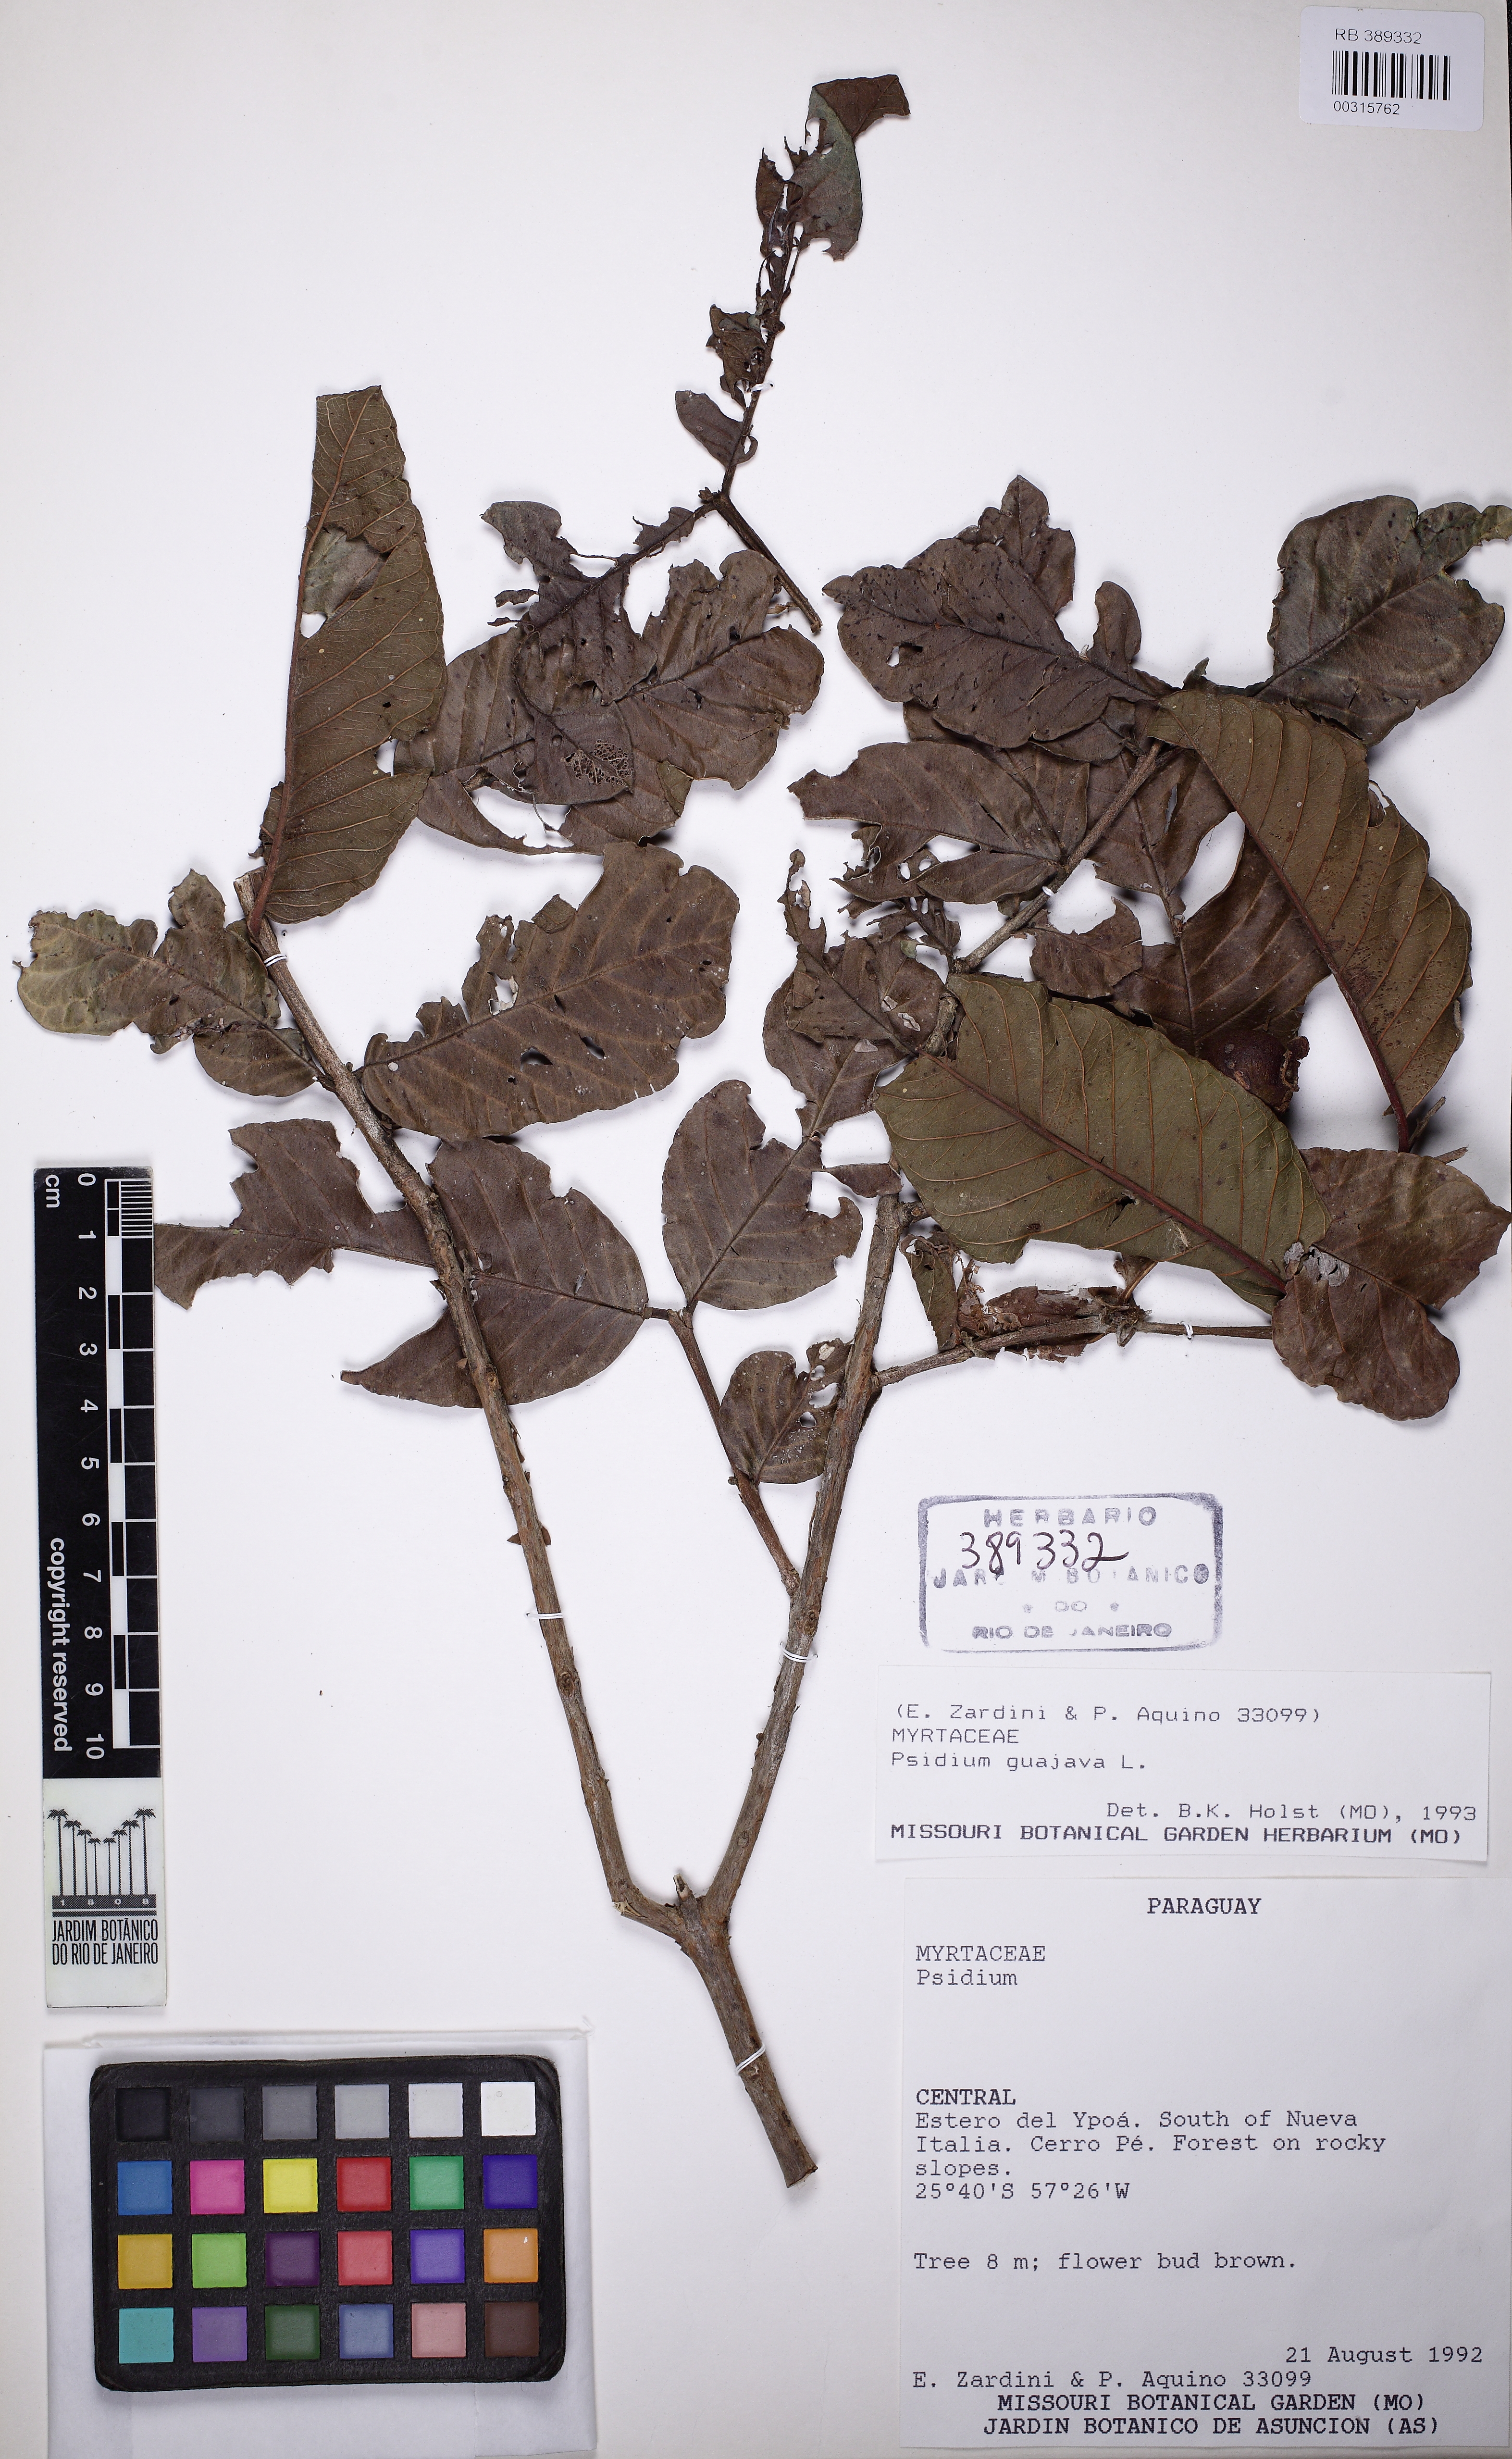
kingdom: Plantae
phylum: Tracheophyta
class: Magnoliopsida
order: Myrtales
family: Myrtaceae
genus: Psidium
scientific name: Psidium guajava
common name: Guava
